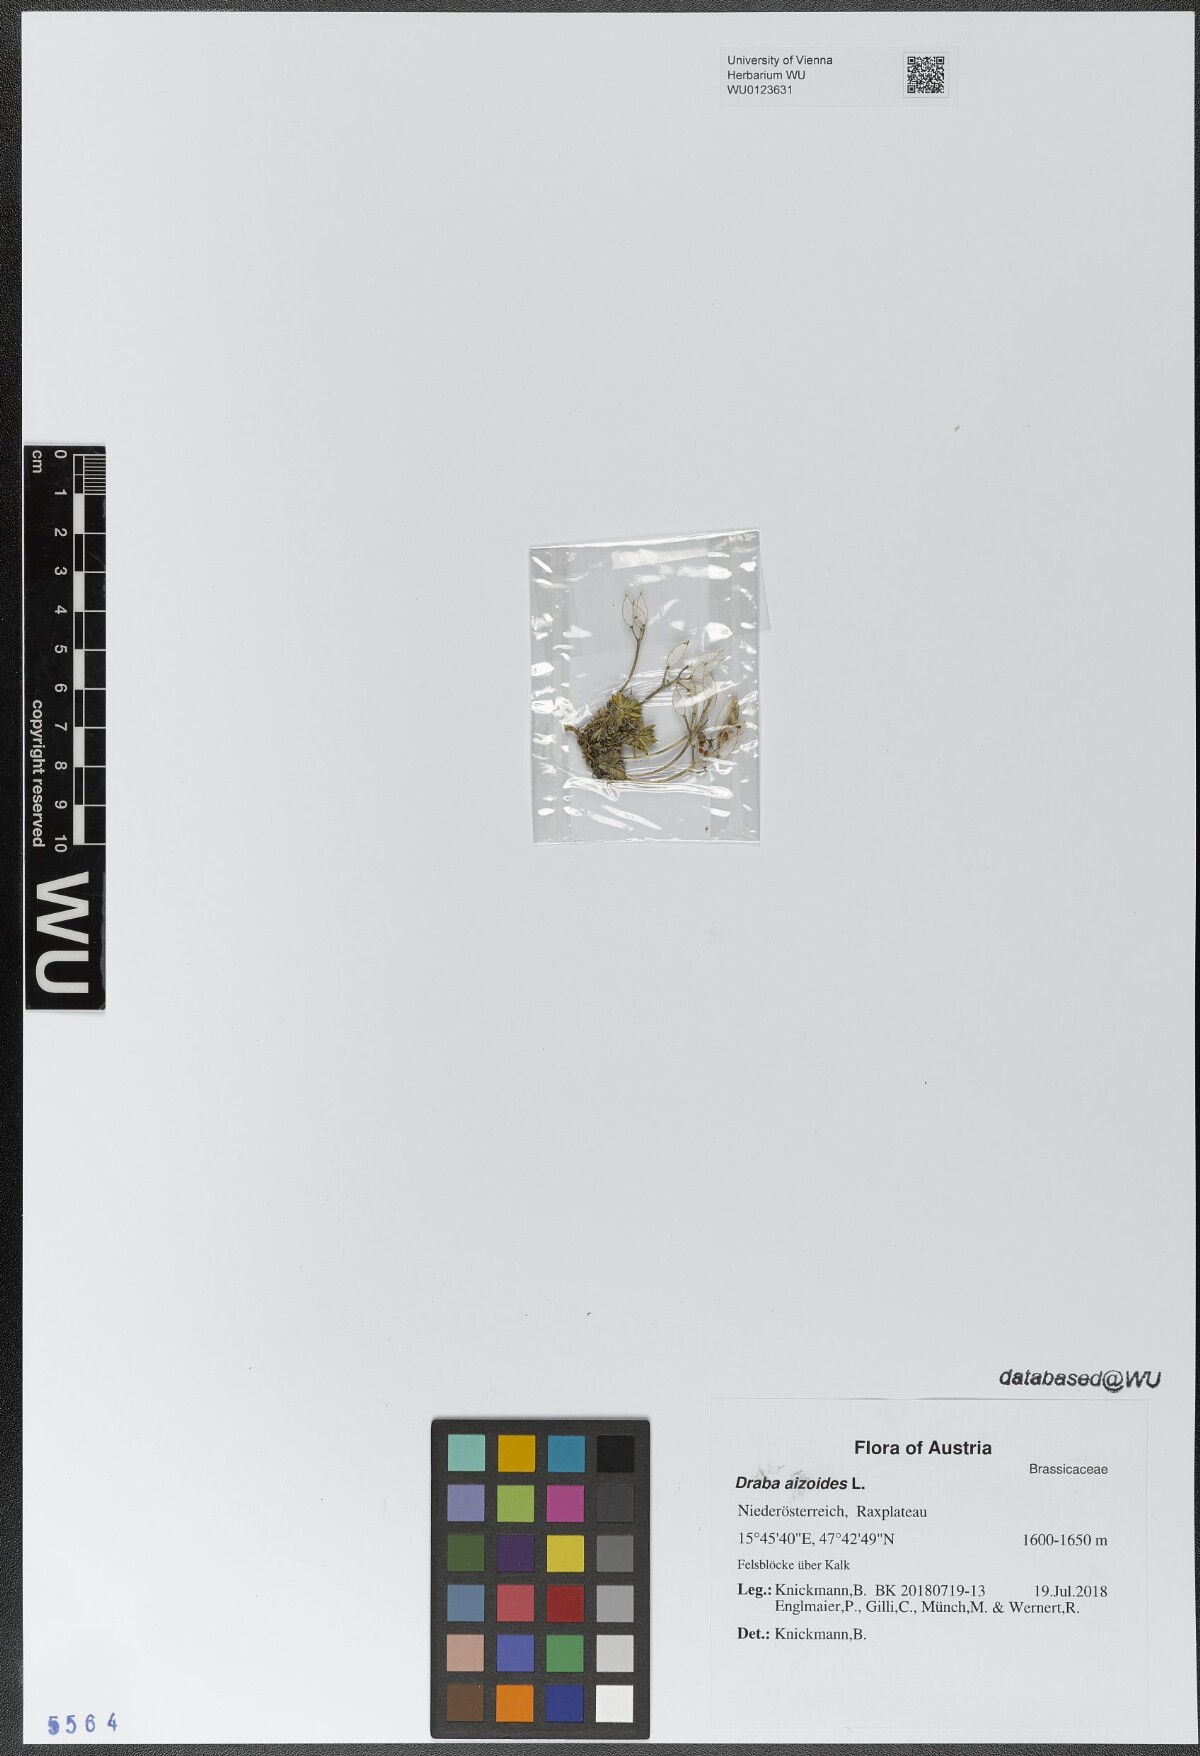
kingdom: Plantae
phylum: Tracheophyta
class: Magnoliopsida
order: Brassicales
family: Brassicaceae
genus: Draba
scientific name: Draba aizoides
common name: Yellow whitlowgrass
